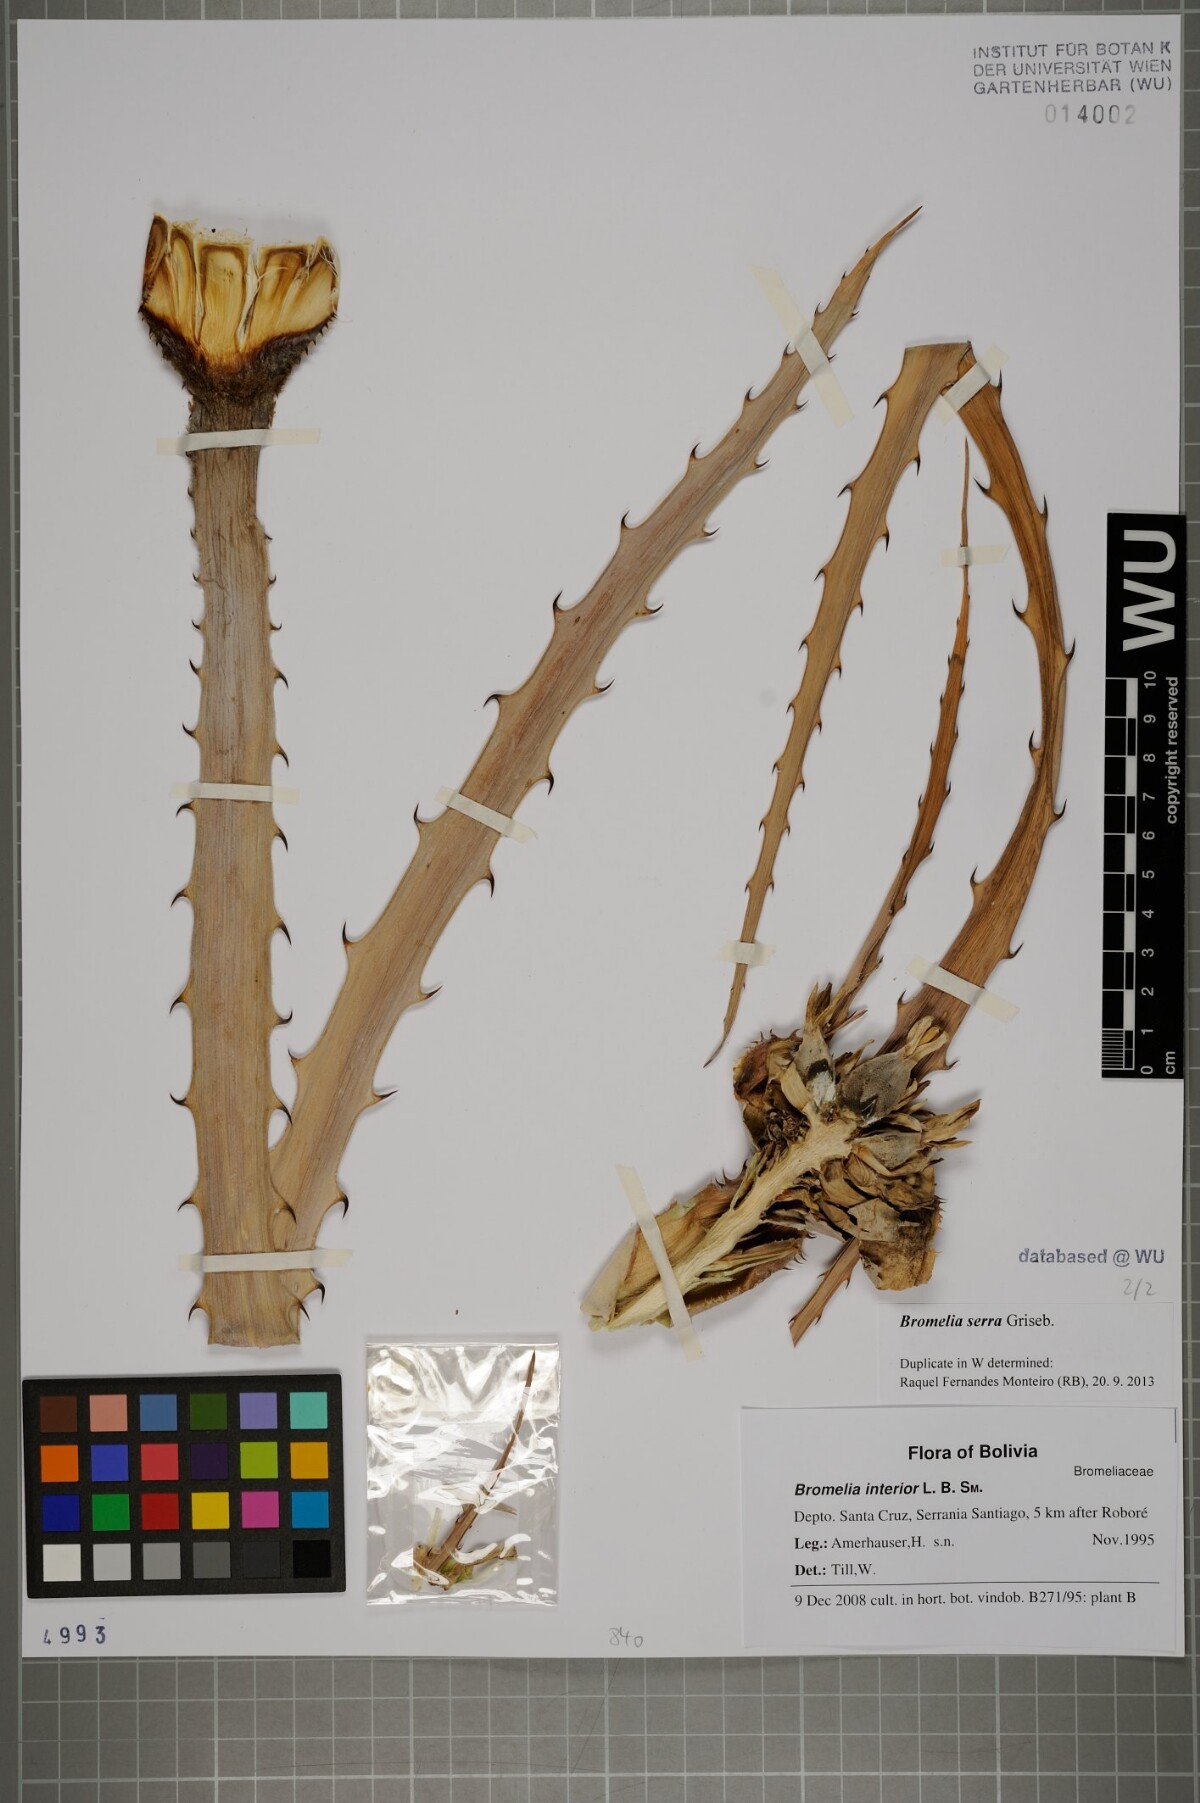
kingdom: Plantae
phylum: Tracheophyta
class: Liliopsida
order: Poales
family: Bromeliaceae
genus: Bromelia
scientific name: Bromelia serra
